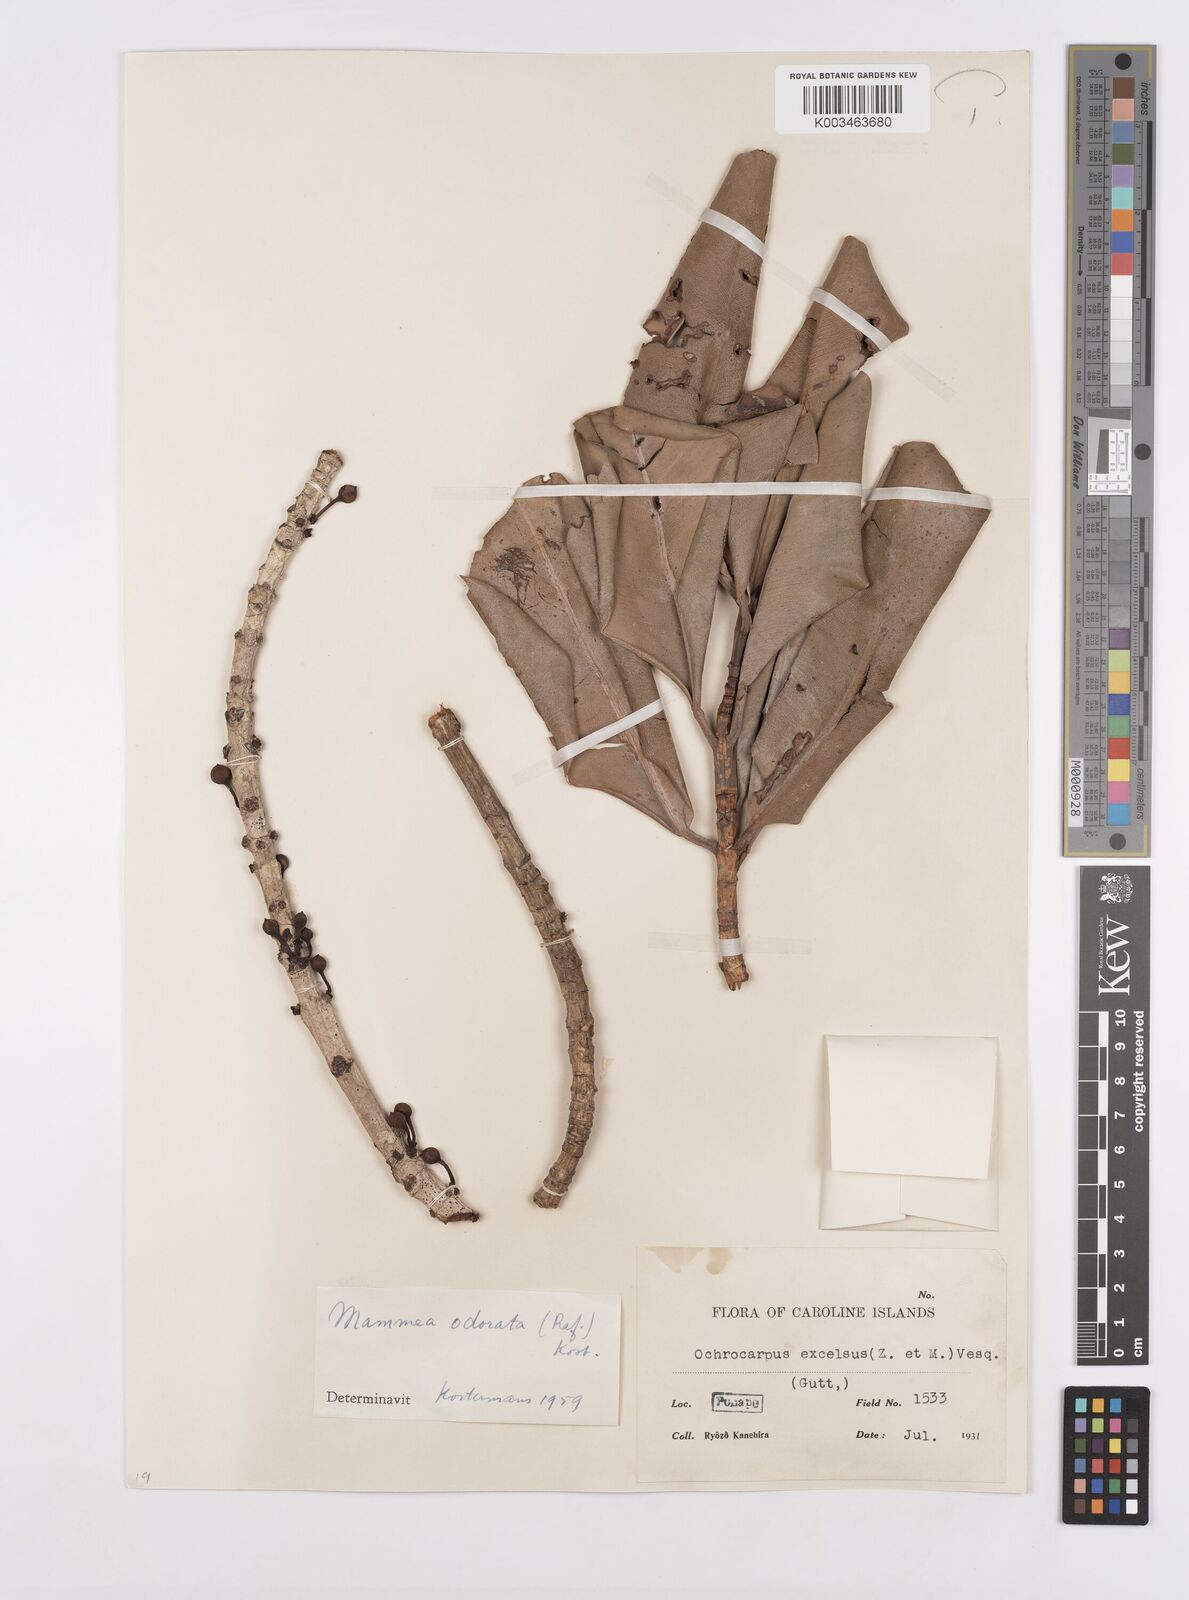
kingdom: Plantae
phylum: Tracheophyta
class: Magnoliopsida
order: Malpighiales
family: Calophyllaceae
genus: Mammea
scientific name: Mammea odorata
